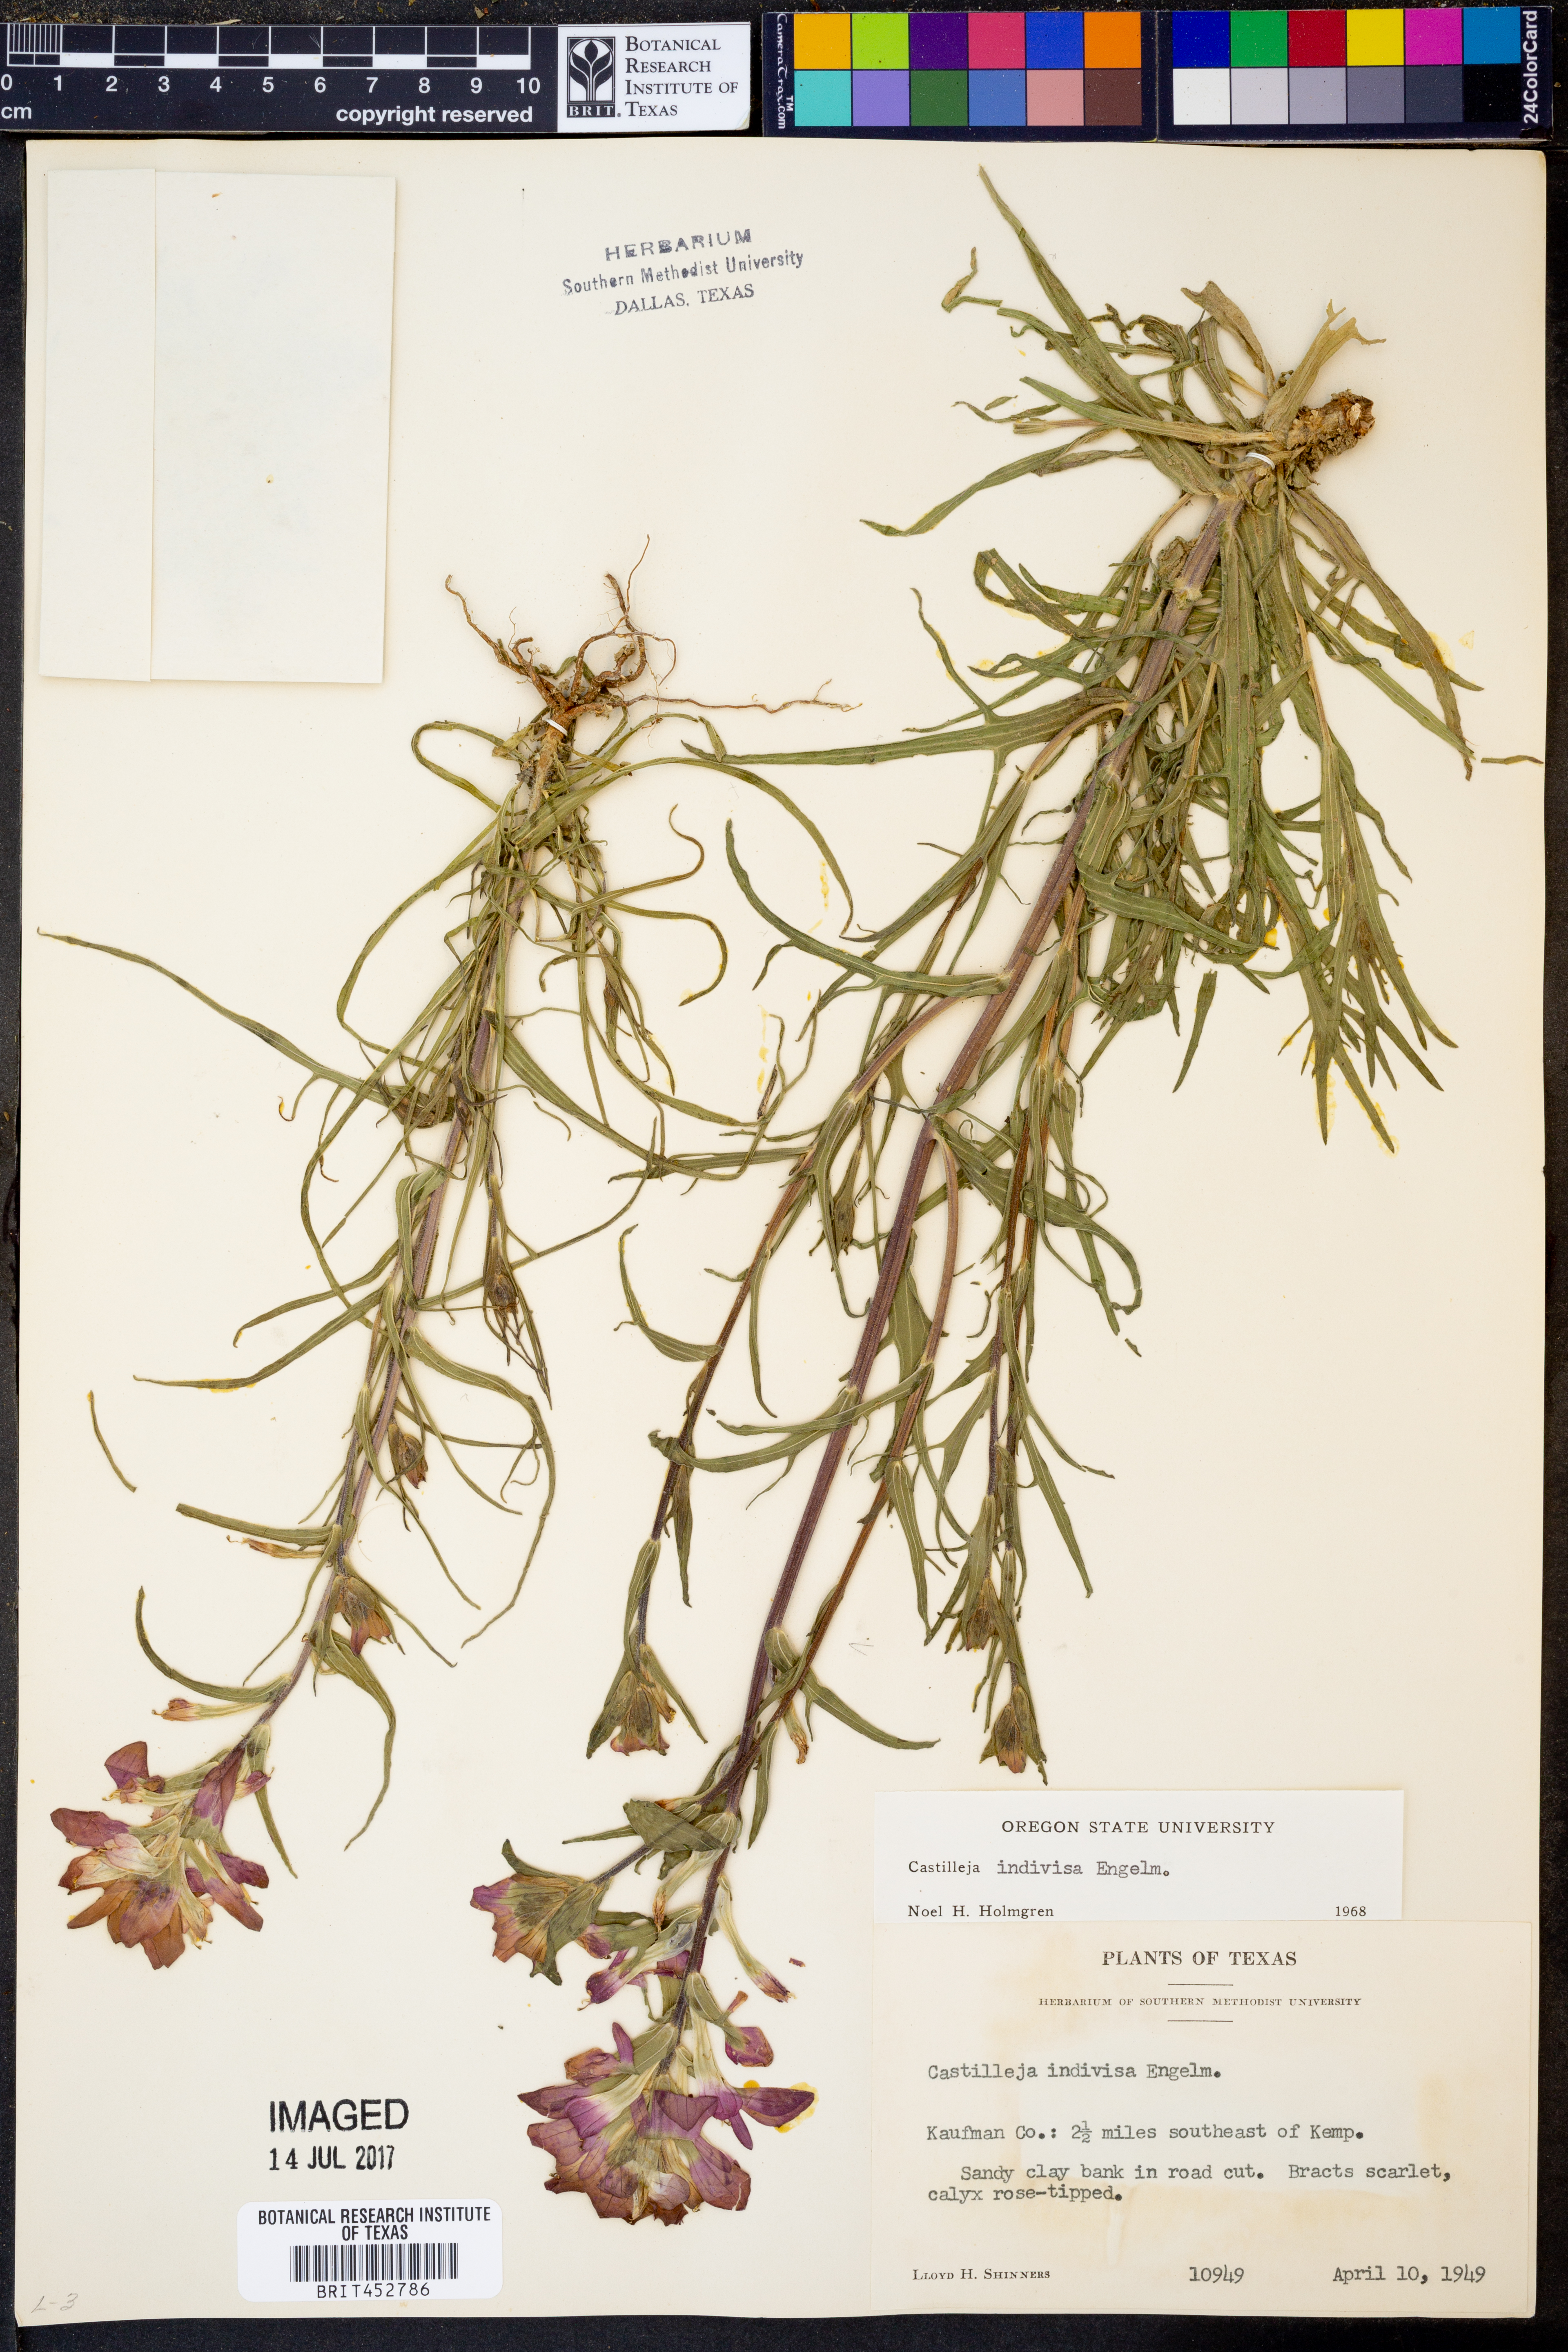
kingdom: Plantae
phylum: Tracheophyta
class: Magnoliopsida
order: Lamiales
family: Orobanchaceae
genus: Castilleja
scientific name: Castilleja indivisa
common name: Texas paintbrush
